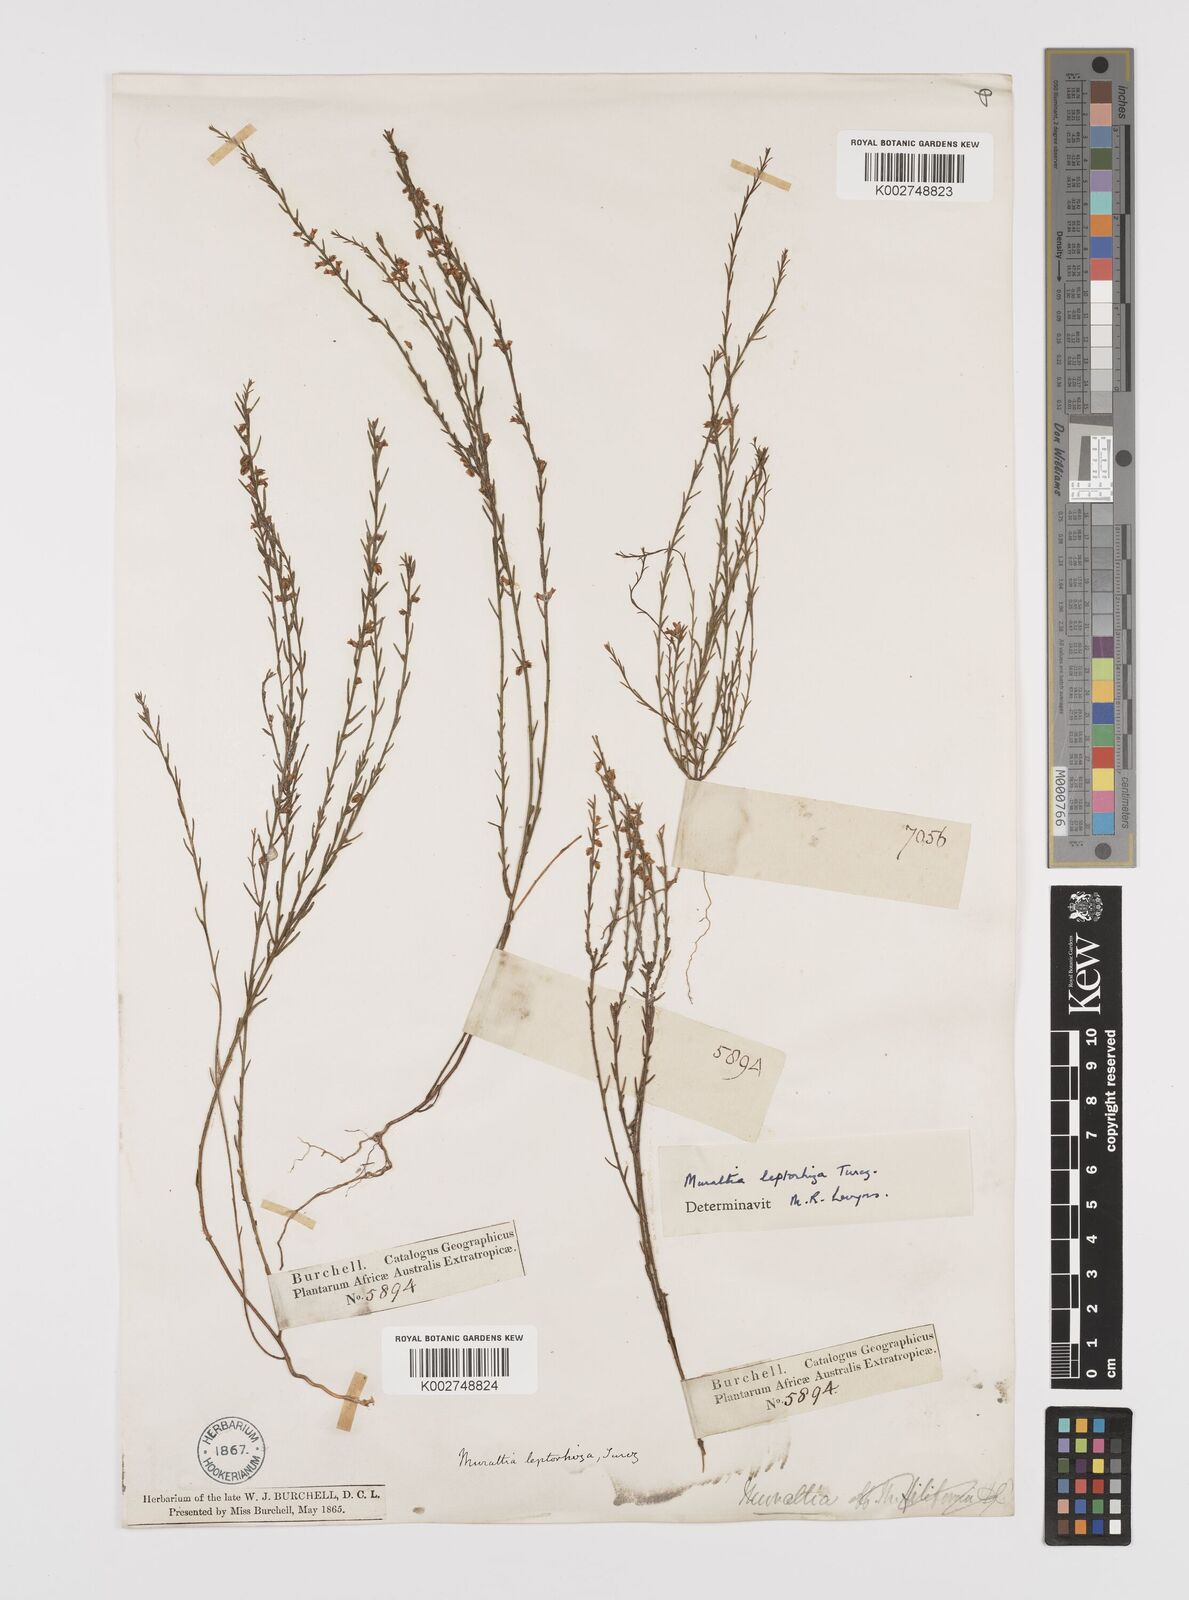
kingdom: Plantae
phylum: Tracheophyta
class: Magnoliopsida
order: Fabales
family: Polygalaceae
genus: Muraltia
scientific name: Muraltia leptorhiza
